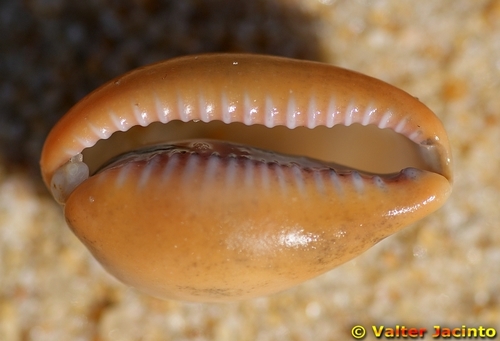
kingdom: Animalia
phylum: Mollusca
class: Gastropoda
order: Littorinimorpha
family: Cypraeidae
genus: Zonaria
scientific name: Zonaria pyrum
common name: Pear cowrie
